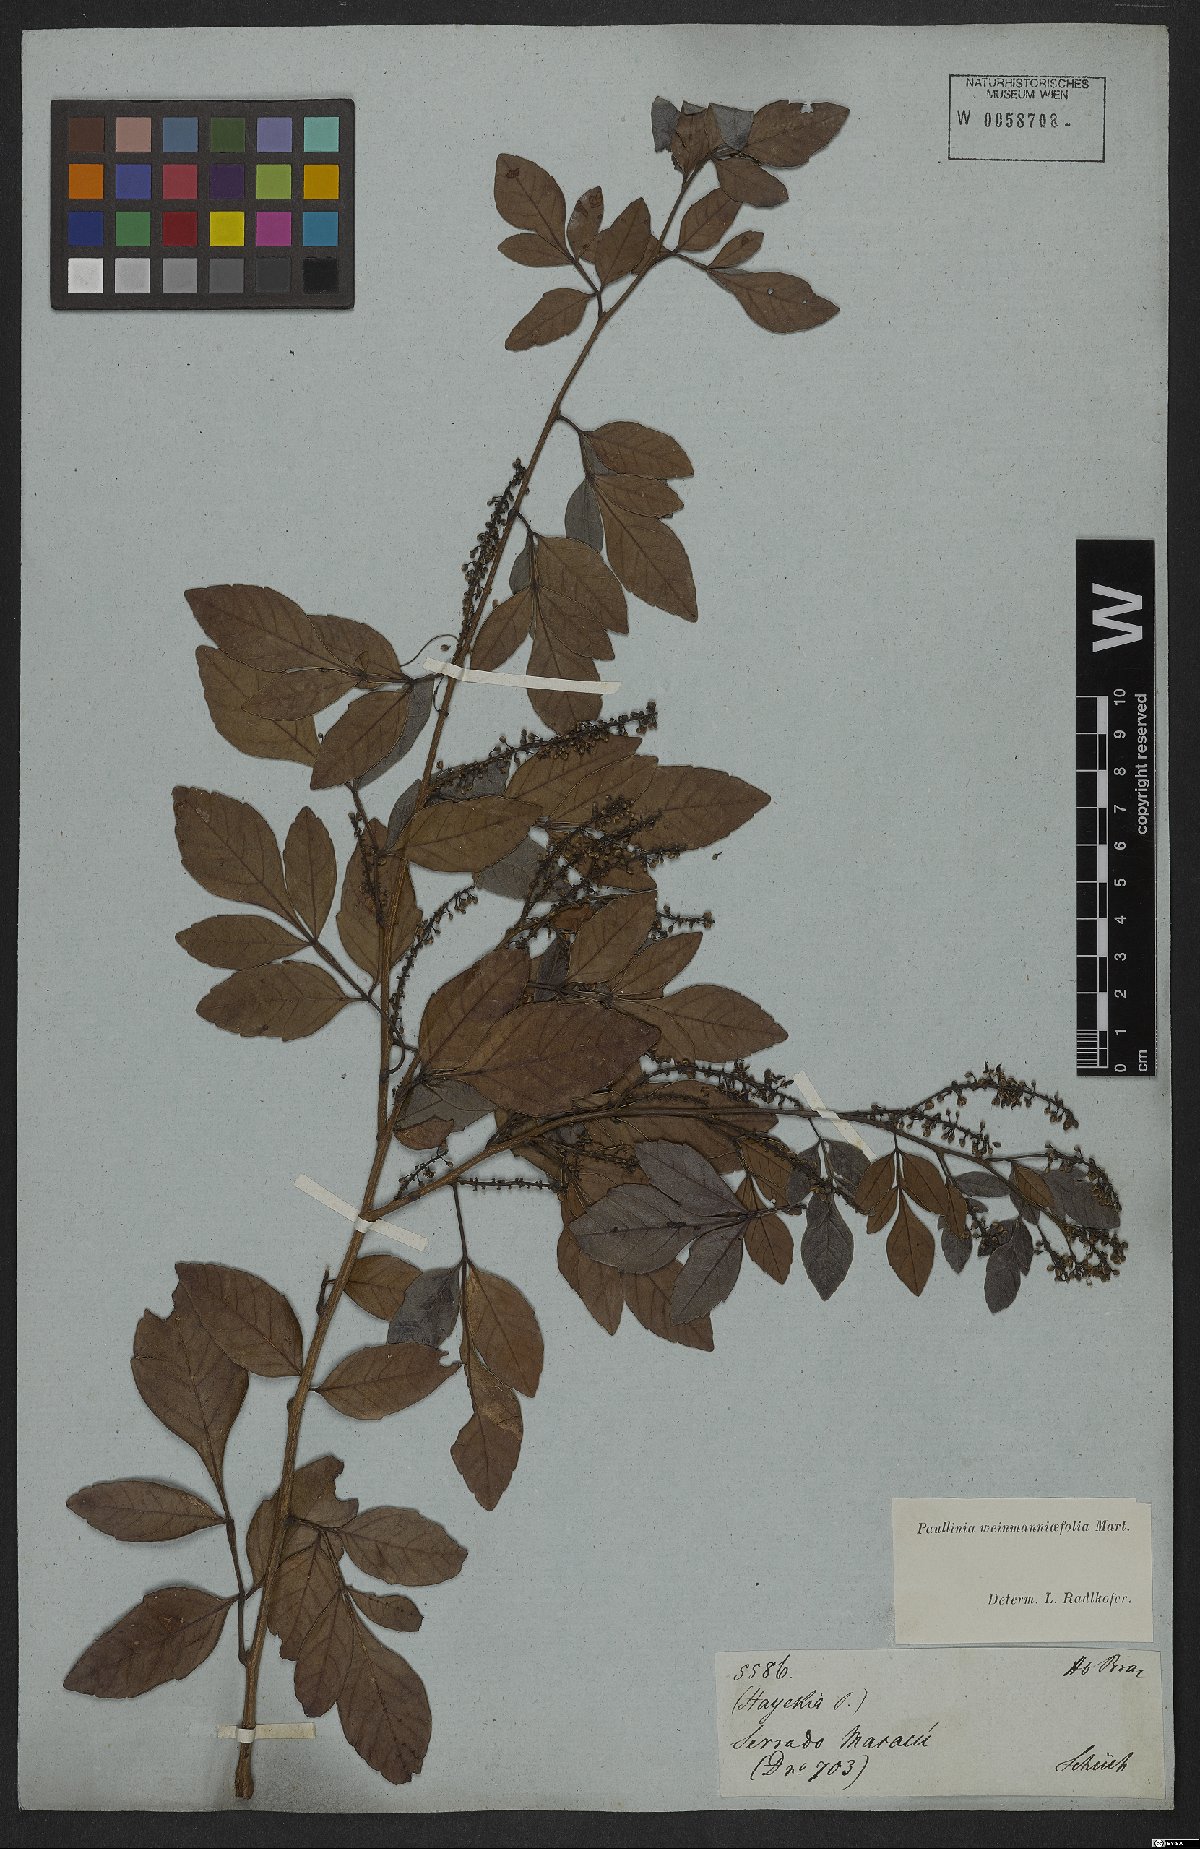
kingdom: Plantae
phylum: Tracheophyta
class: Magnoliopsida
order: Sapindales
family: Sapindaceae
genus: Paullinia
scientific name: Paullinia weinmanniifolia
